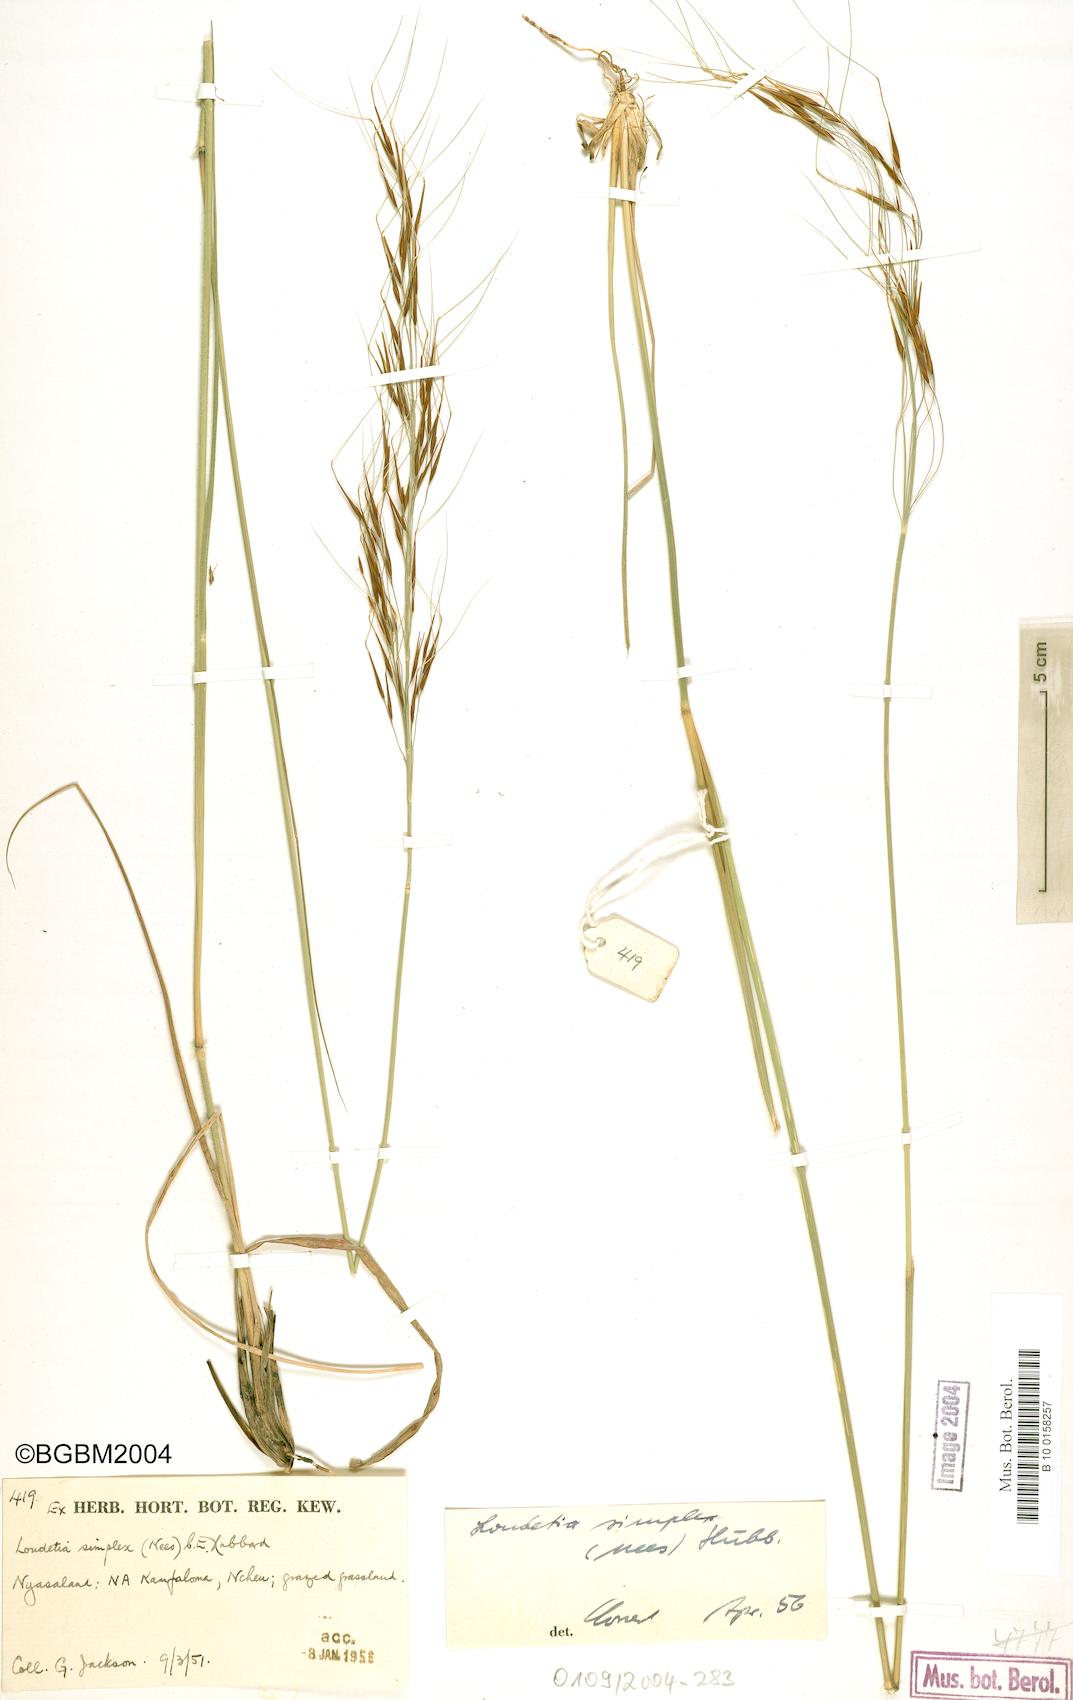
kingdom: Plantae
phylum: Tracheophyta
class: Liliopsida
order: Poales
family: Poaceae
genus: Loudetia
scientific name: Loudetia simplex
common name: Common russet grass
